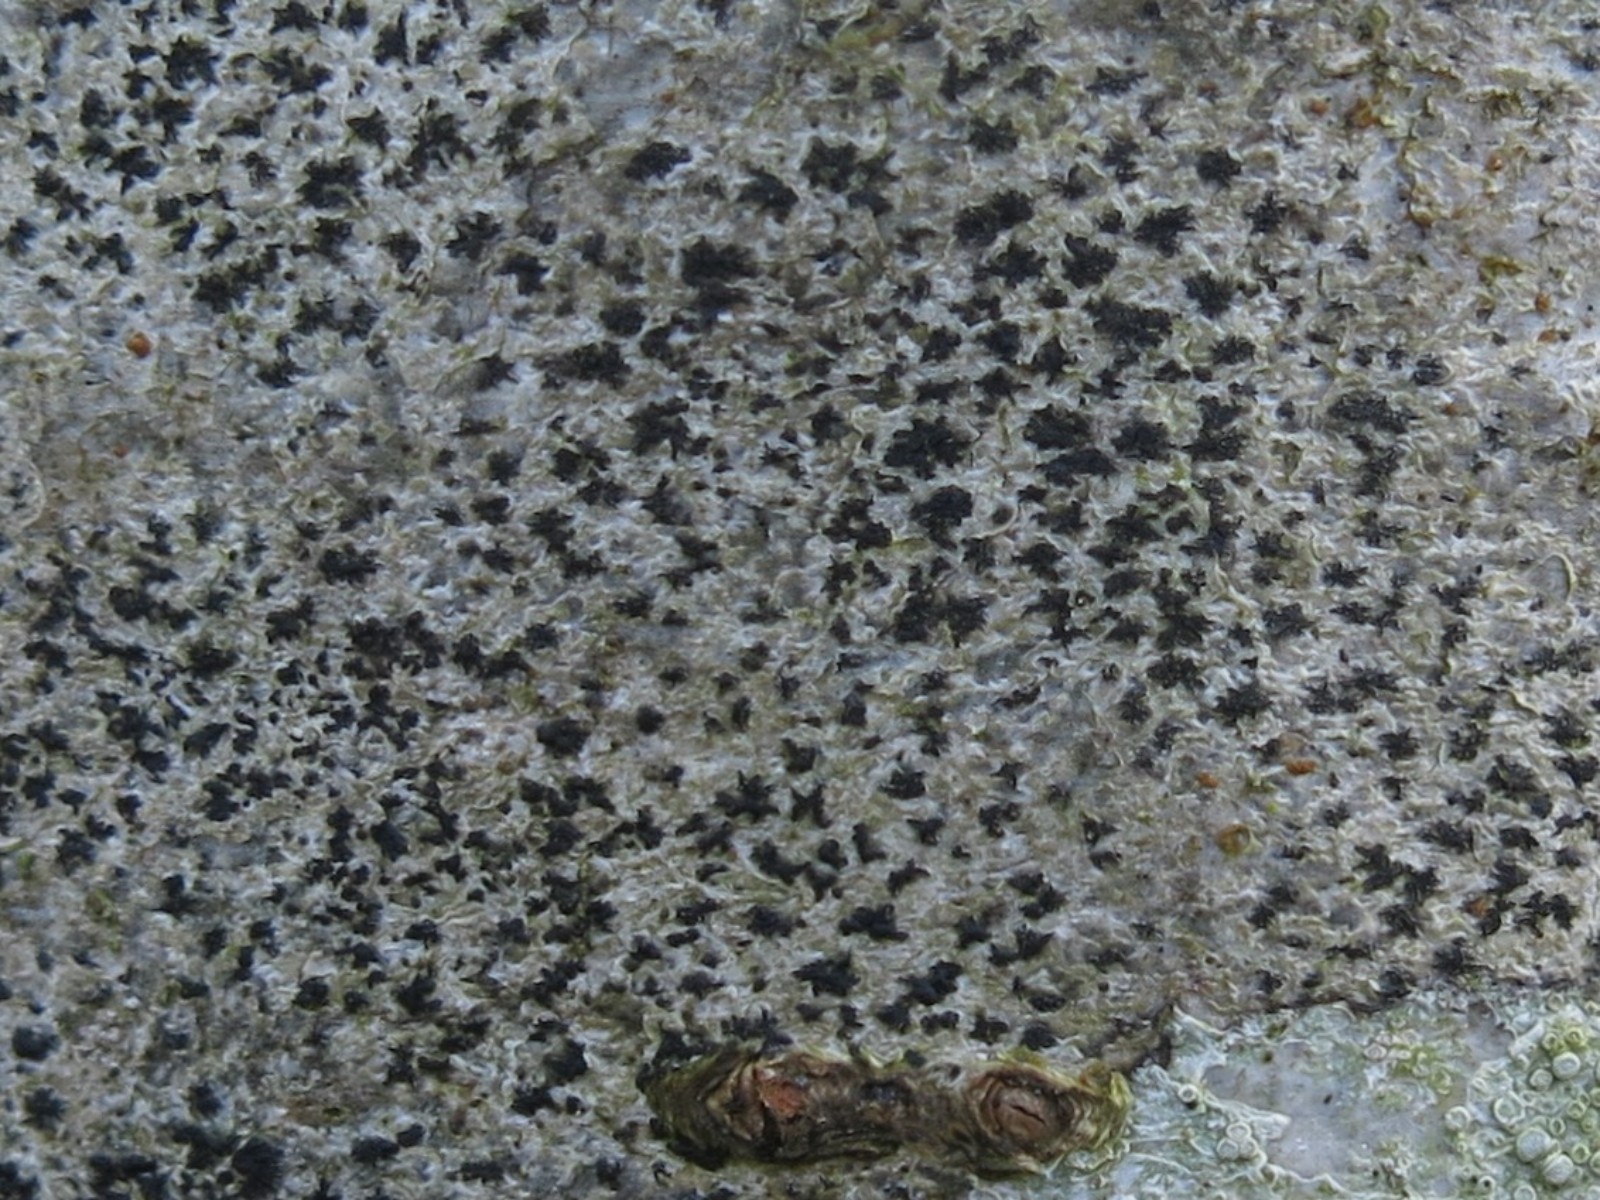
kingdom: Fungi
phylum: Ascomycota
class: Arthoniomycetes
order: Arthoniales
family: Arthoniaceae
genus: Arthonia
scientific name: Arthonia radiata
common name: stjerne-pletlav
